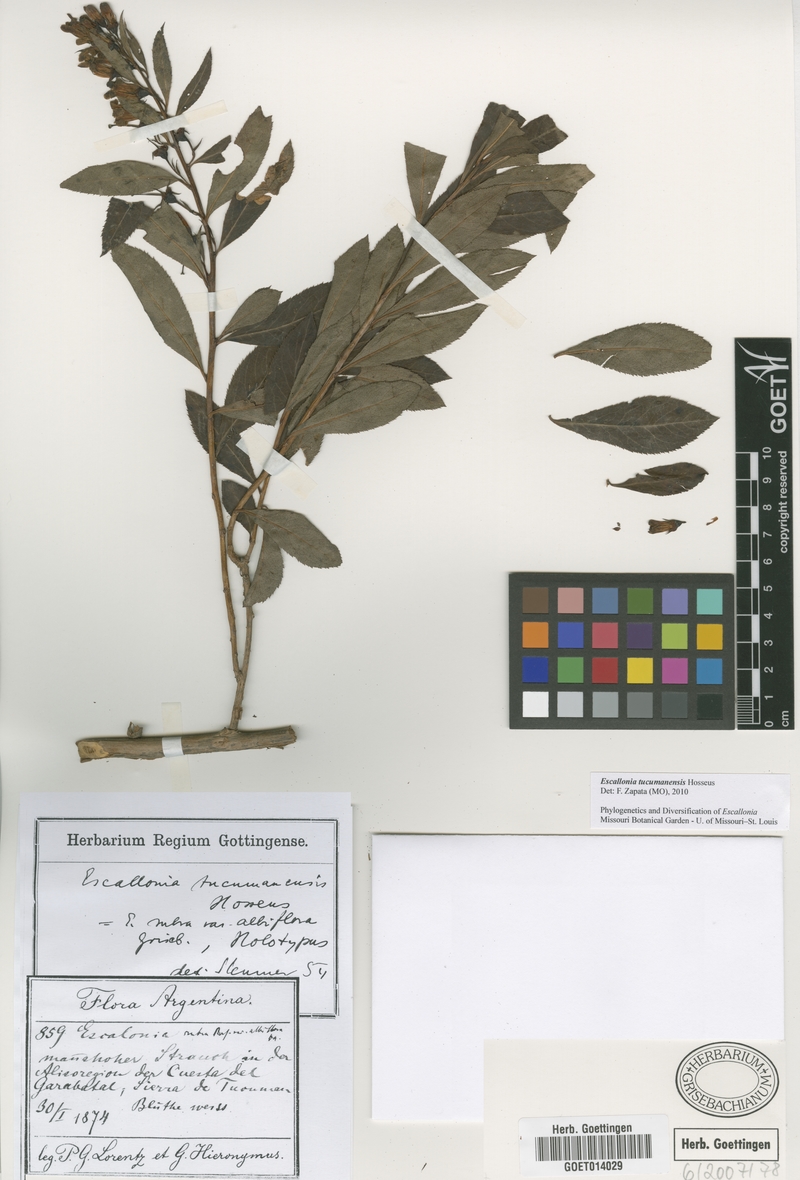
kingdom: Plantae
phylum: Tracheophyta
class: Magnoliopsida
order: Escalloniales
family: Escalloniaceae
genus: Escallonia
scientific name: Escallonia tucumanensis
